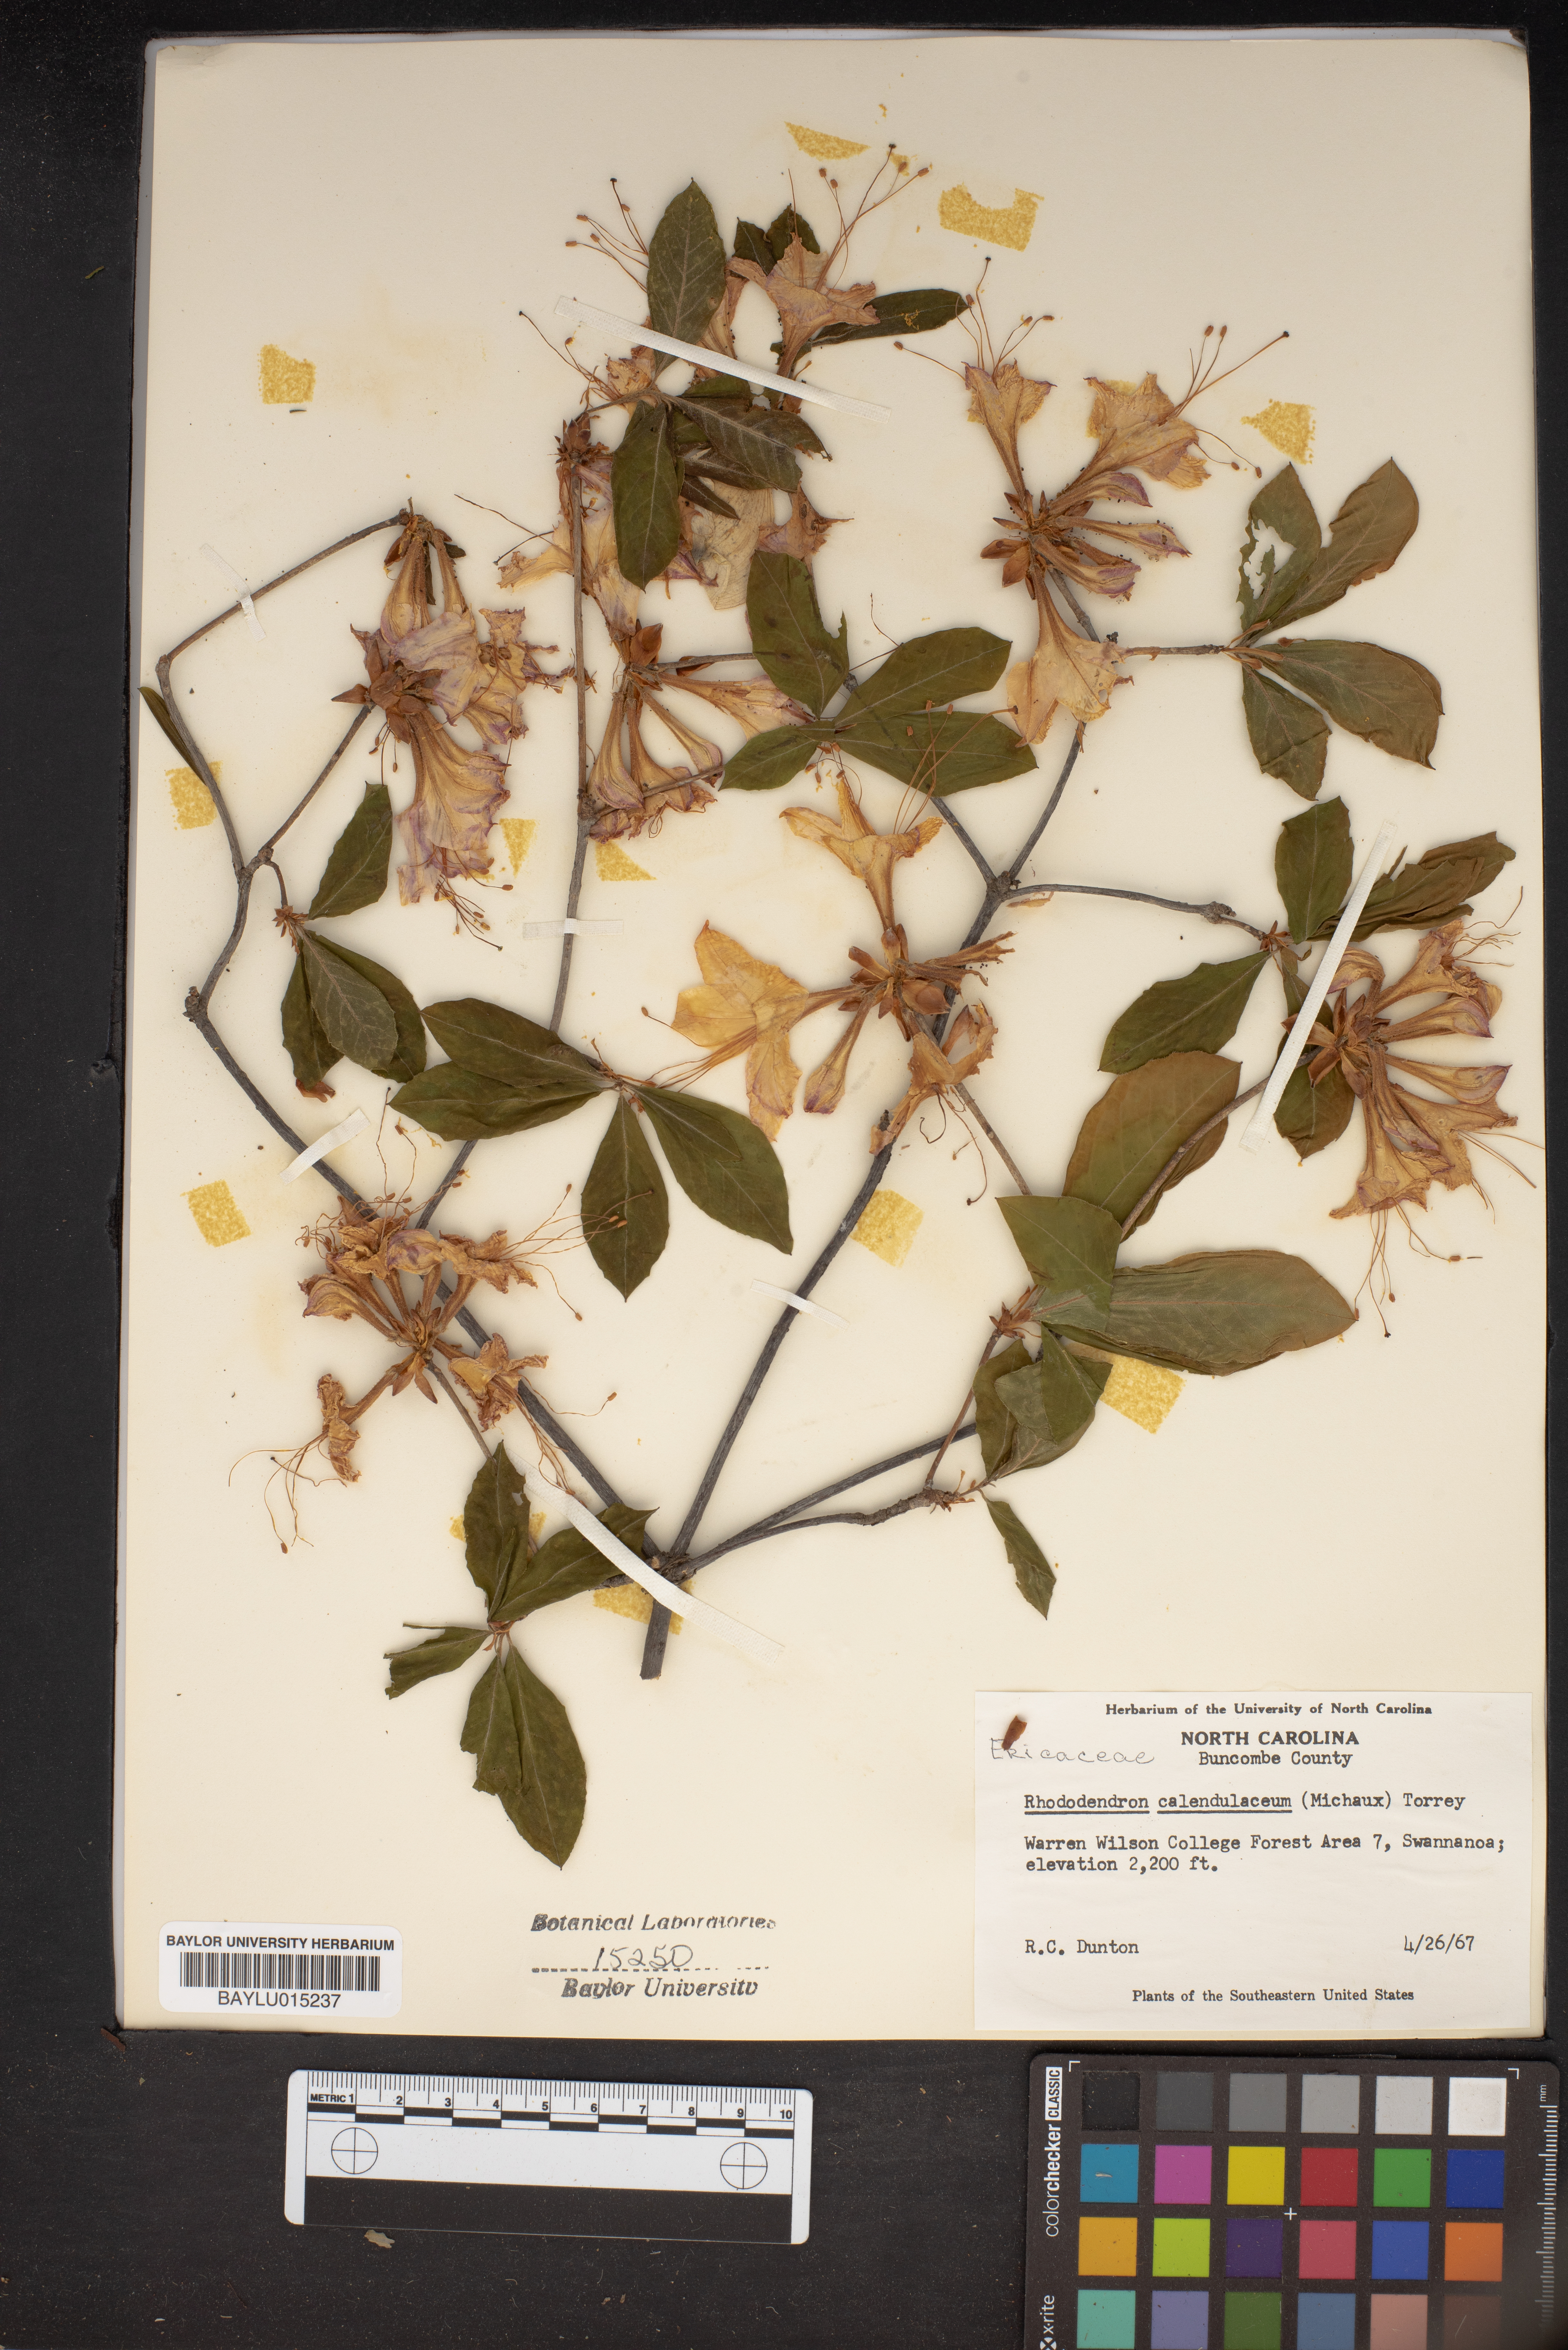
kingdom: Plantae
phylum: Tracheophyta
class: Magnoliopsida
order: Ericales
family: Ericaceae
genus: Rhododendron
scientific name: Rhododendron calendulaceum
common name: Flame azalea
